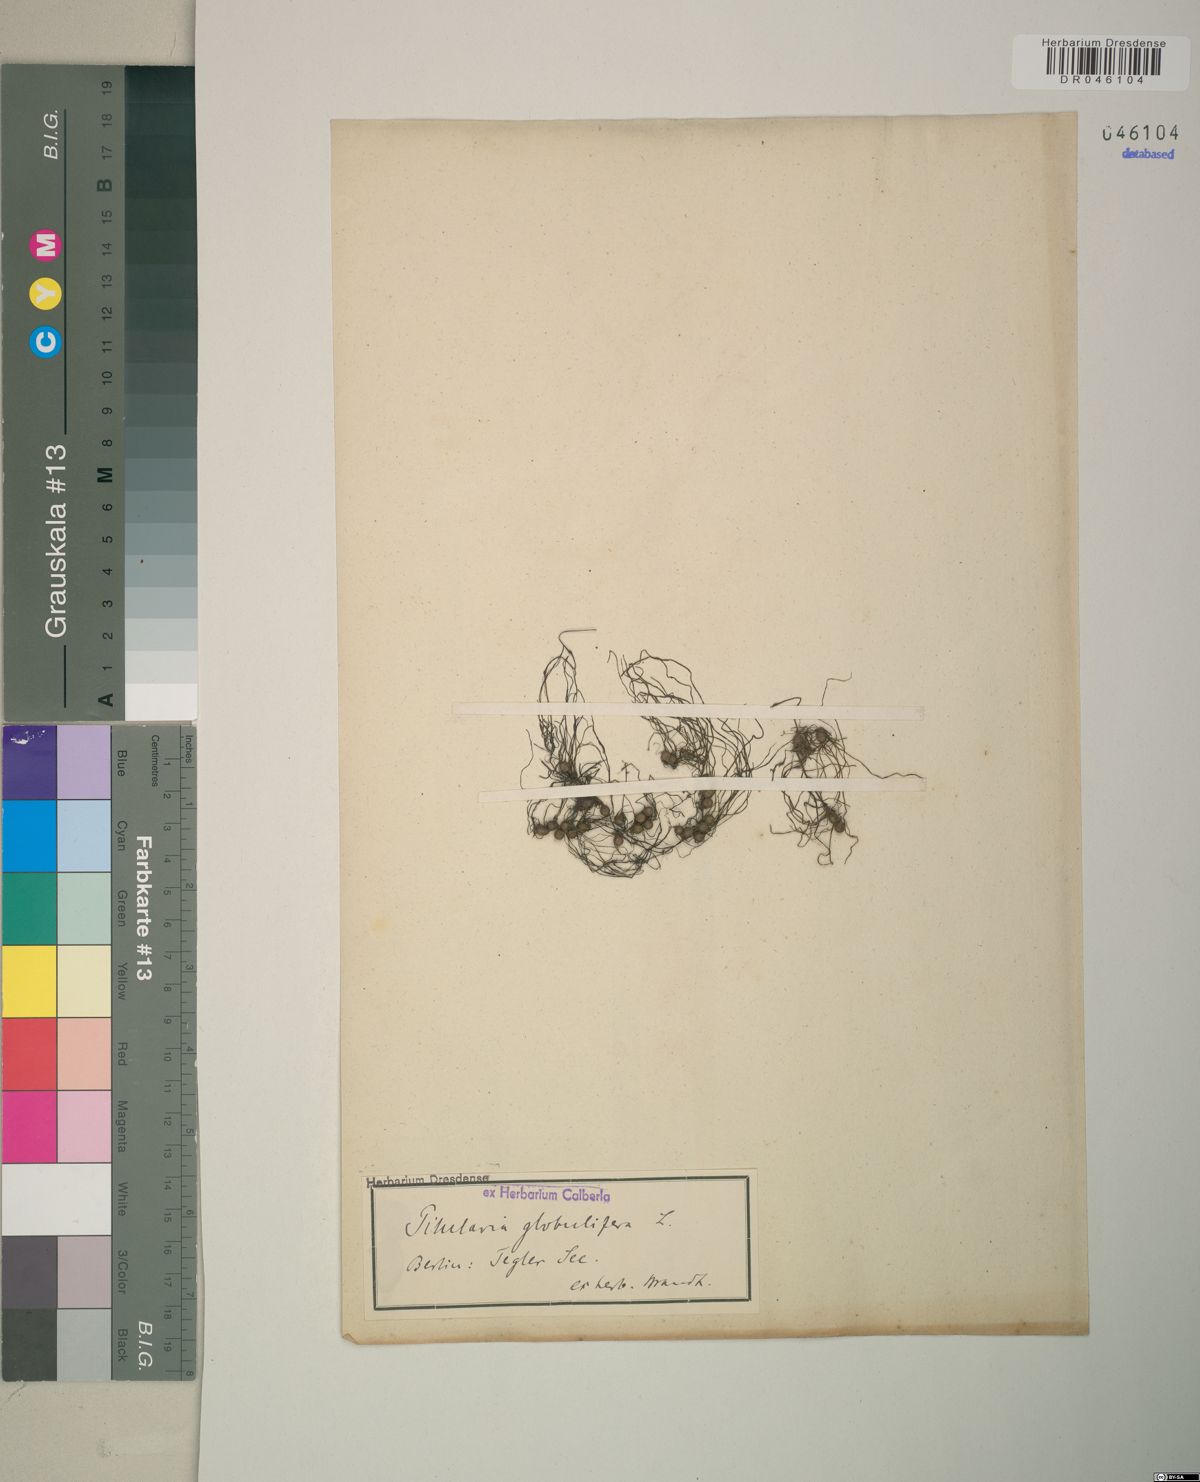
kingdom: Plantae
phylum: Tracheophyta
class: Polypodiopsida
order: Salviniales
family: Marsileaceae
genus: Pilularia
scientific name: Pilularia globulifera
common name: Pillwort
